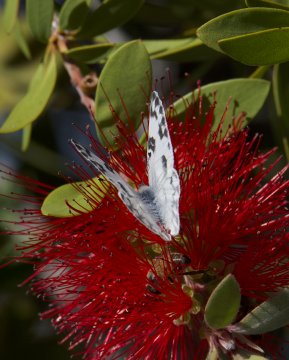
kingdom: Animalia
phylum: Arthropoda
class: Insecta
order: Lepidoptera
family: Pieridae
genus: Pontia
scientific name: Pontia protodice
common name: Checkered White
